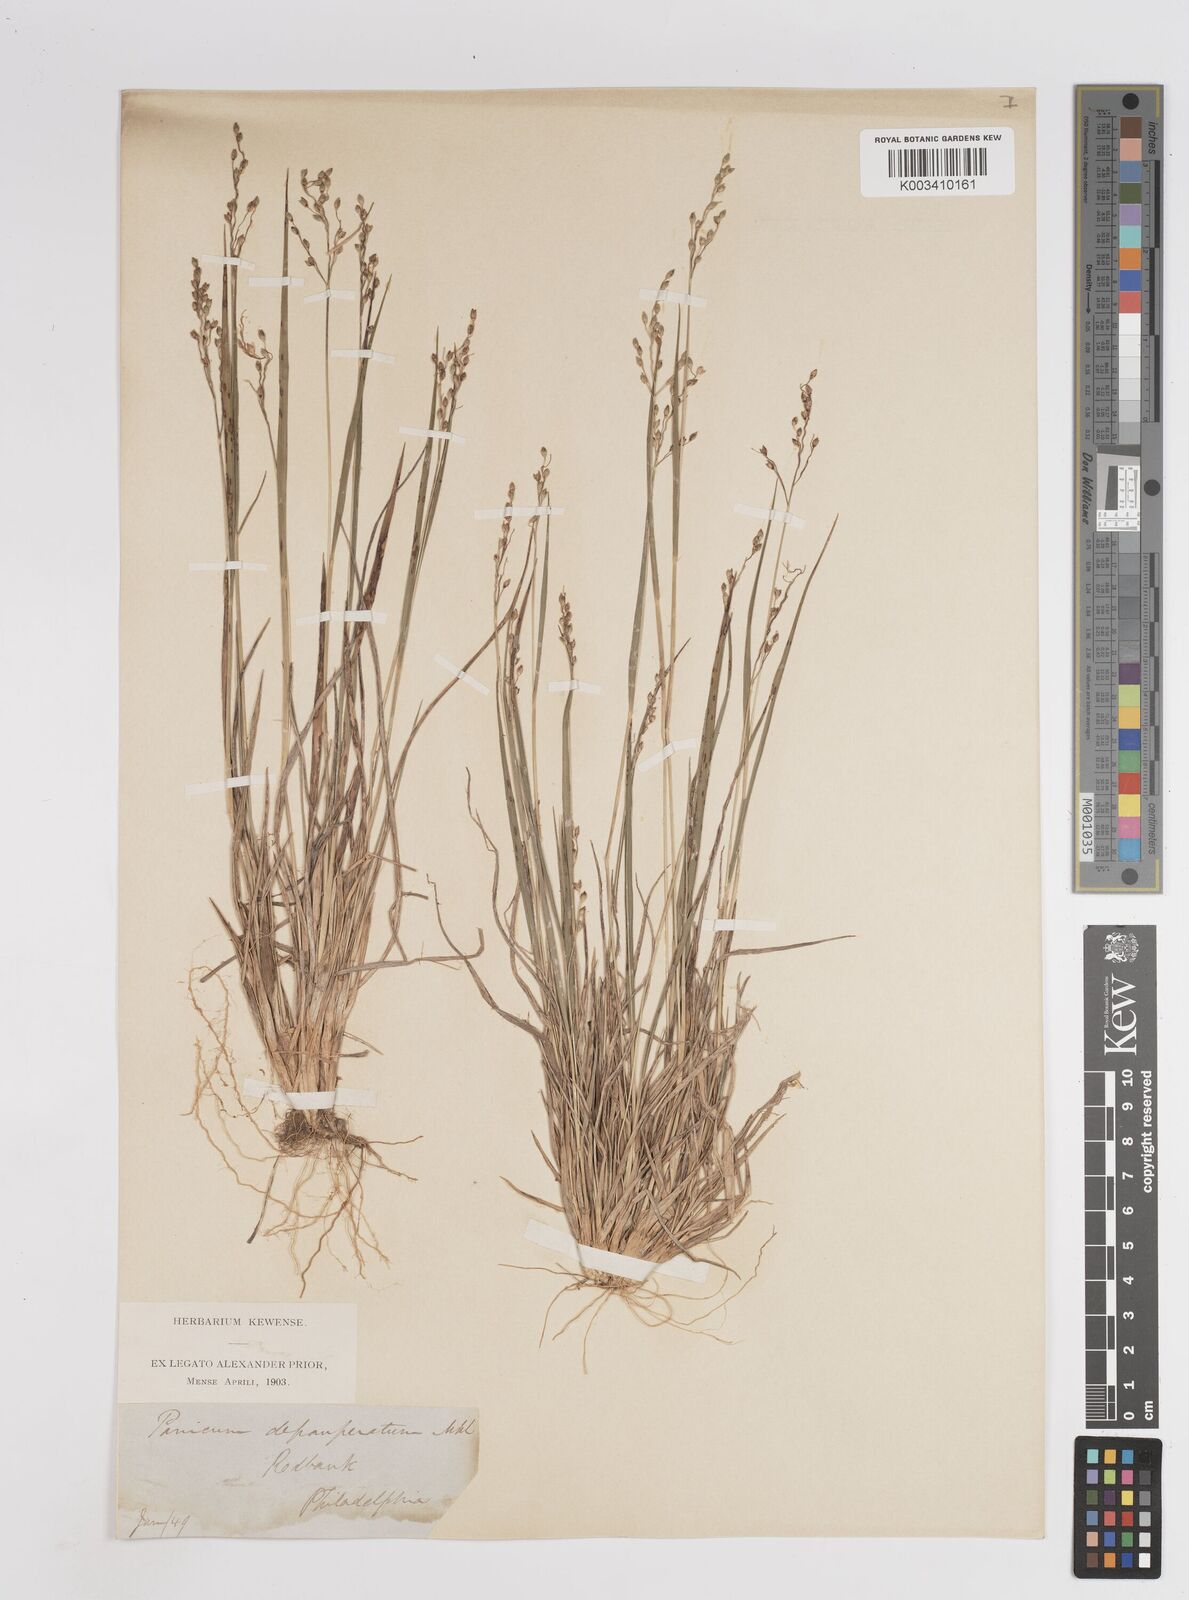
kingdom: Plantae
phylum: Tracheophyta
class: Liliopsida
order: Poales
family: Poaceae
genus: Dichanthelium
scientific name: Dichanthelium depauperatum
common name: Depauperate panicgrass
